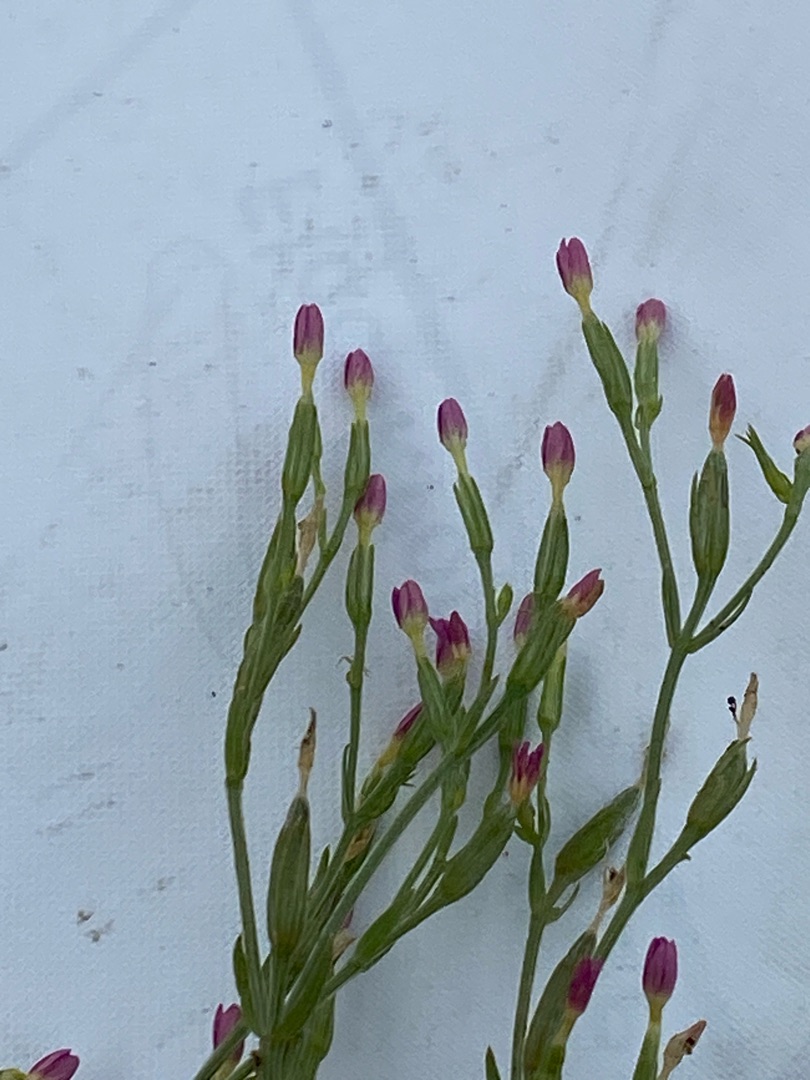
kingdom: Plantae
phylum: Tracheophyta
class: Magnoliopsida
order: Gentianales
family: Gentianaceae
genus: Centaurium
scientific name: Centaurium erythraea
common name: Mark-tusindgylden
